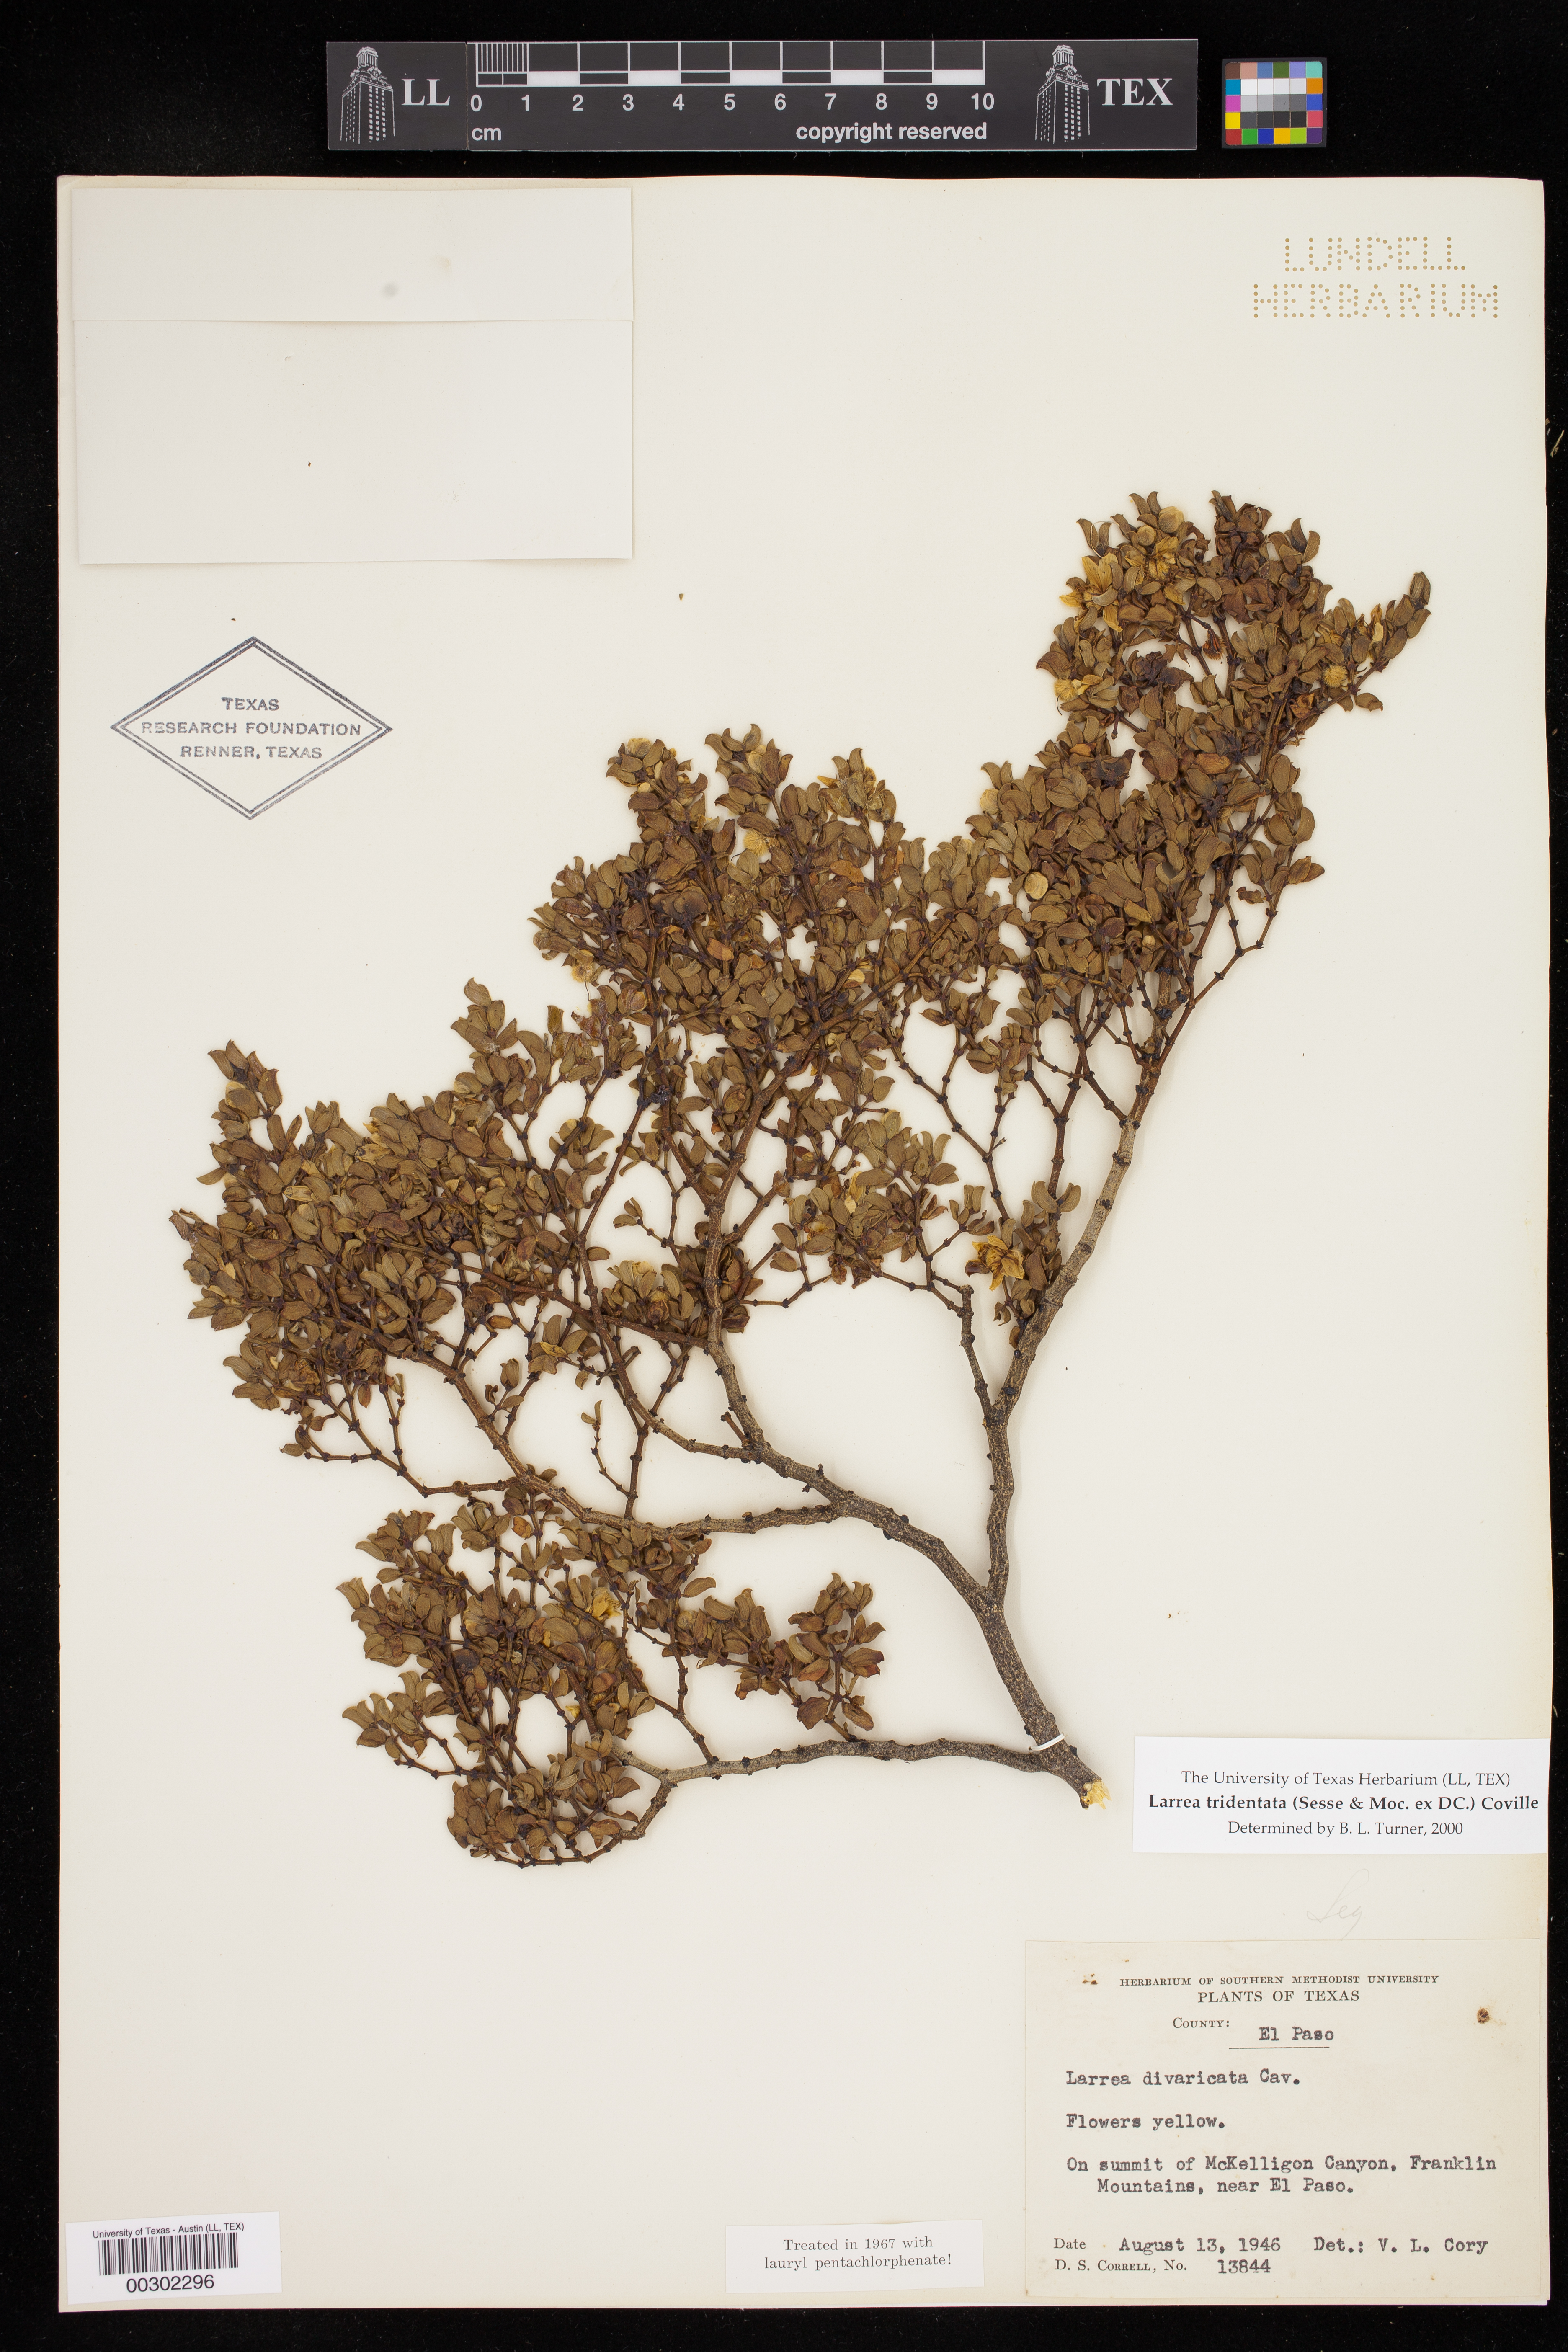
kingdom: Plantae
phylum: Tracheophyta
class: Magnoliopsida
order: Zygophyllales
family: Zygophyllaceae
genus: Larrea
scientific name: Larrea tridentata
